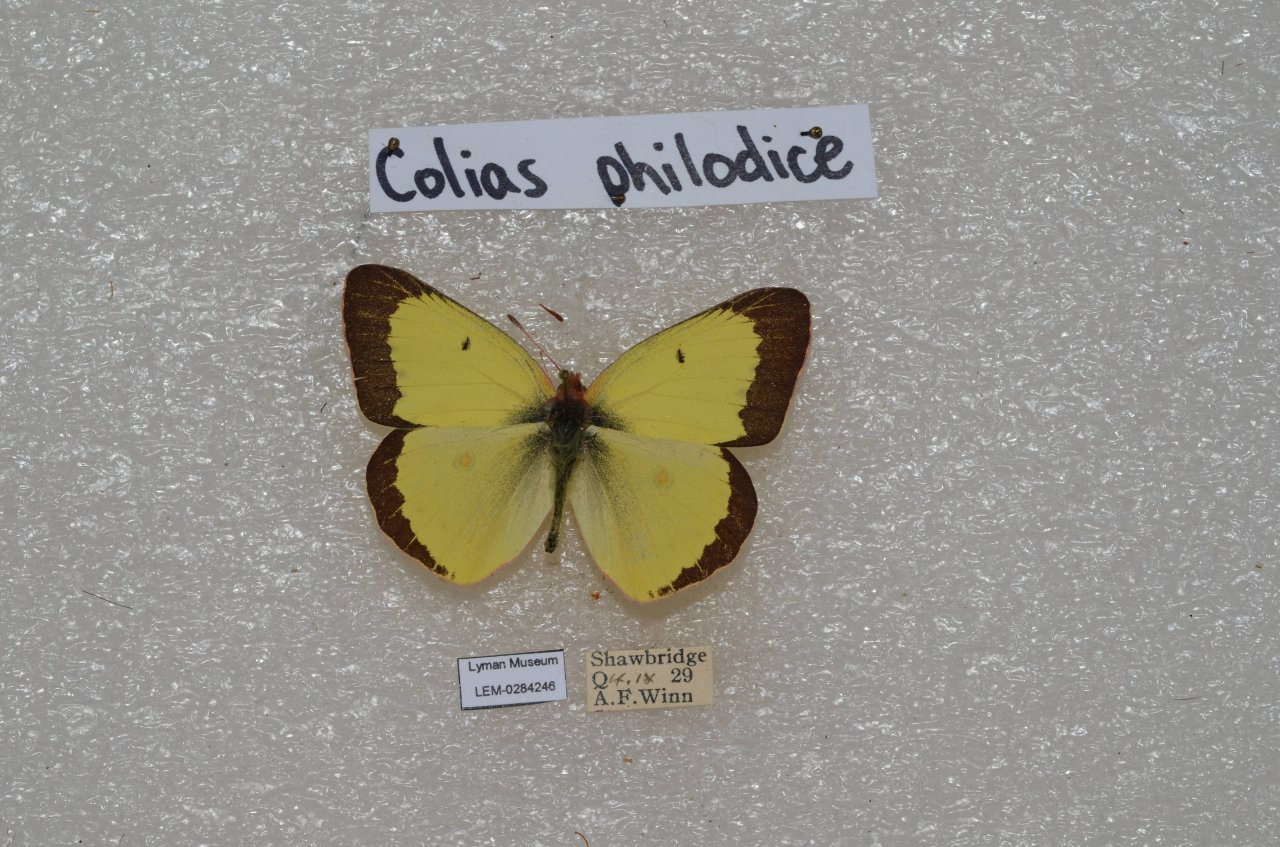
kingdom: Animalia
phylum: Arthropoda
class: Insecta
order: Lepidoptera
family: Pieridae
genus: Colias
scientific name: Colias philodice
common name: Clouded Sulphur
